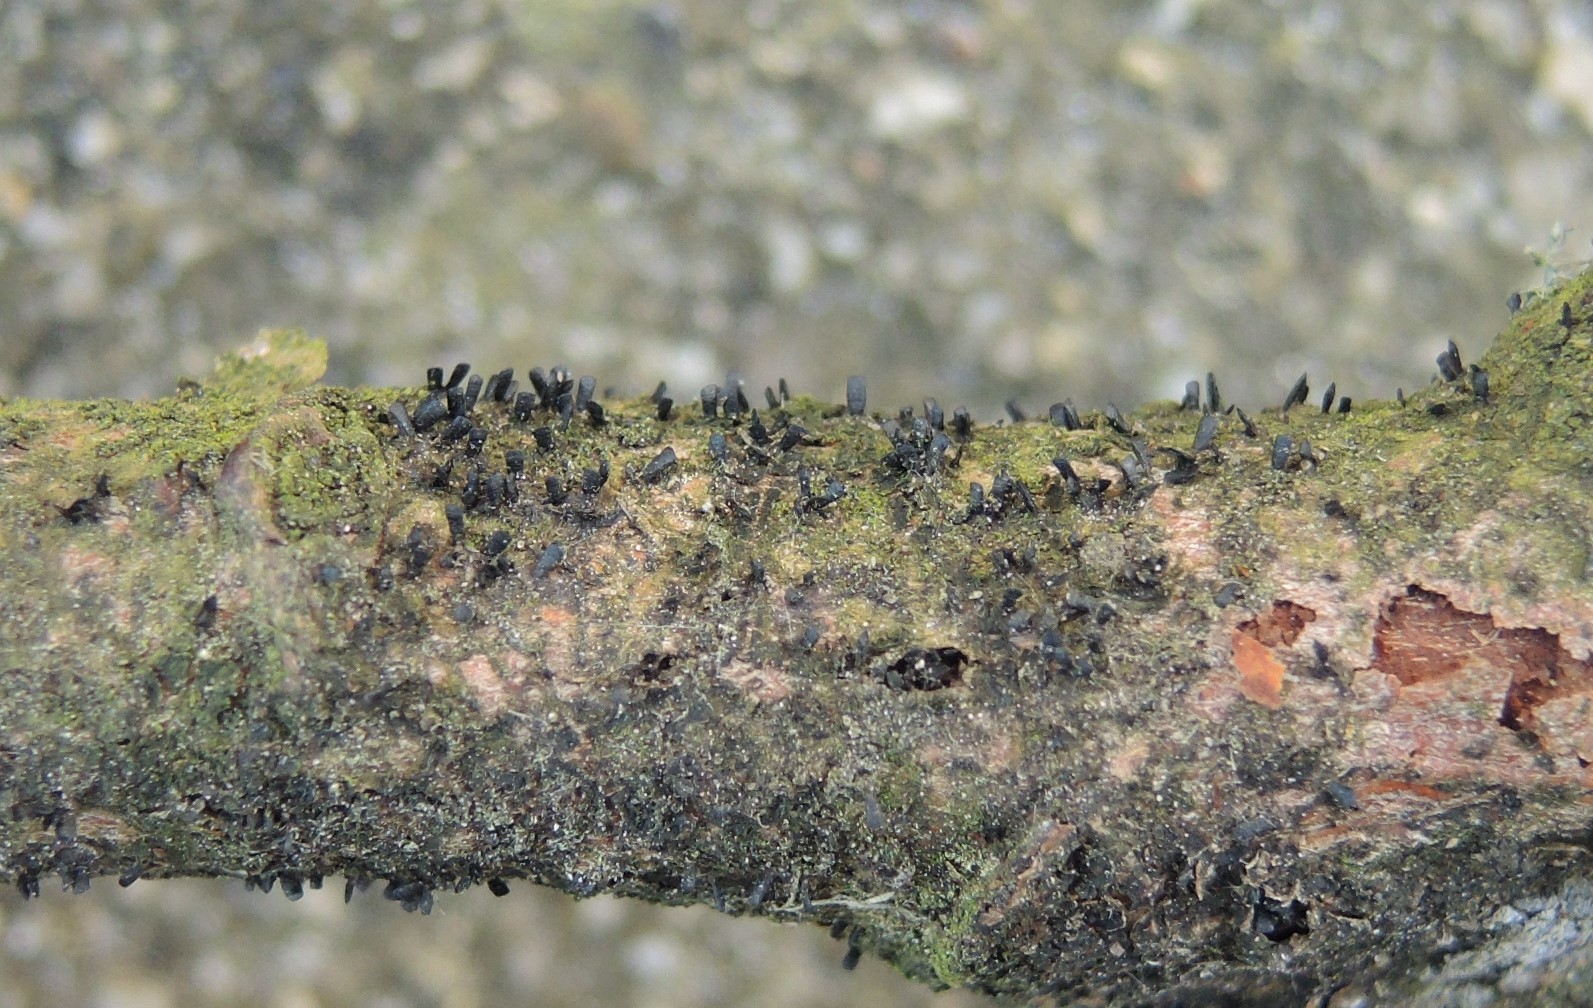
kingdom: Fungi
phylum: Ascomycota
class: Eurotiomycetes
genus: Glyphium
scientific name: Glyphium elatum
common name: kuløkse
